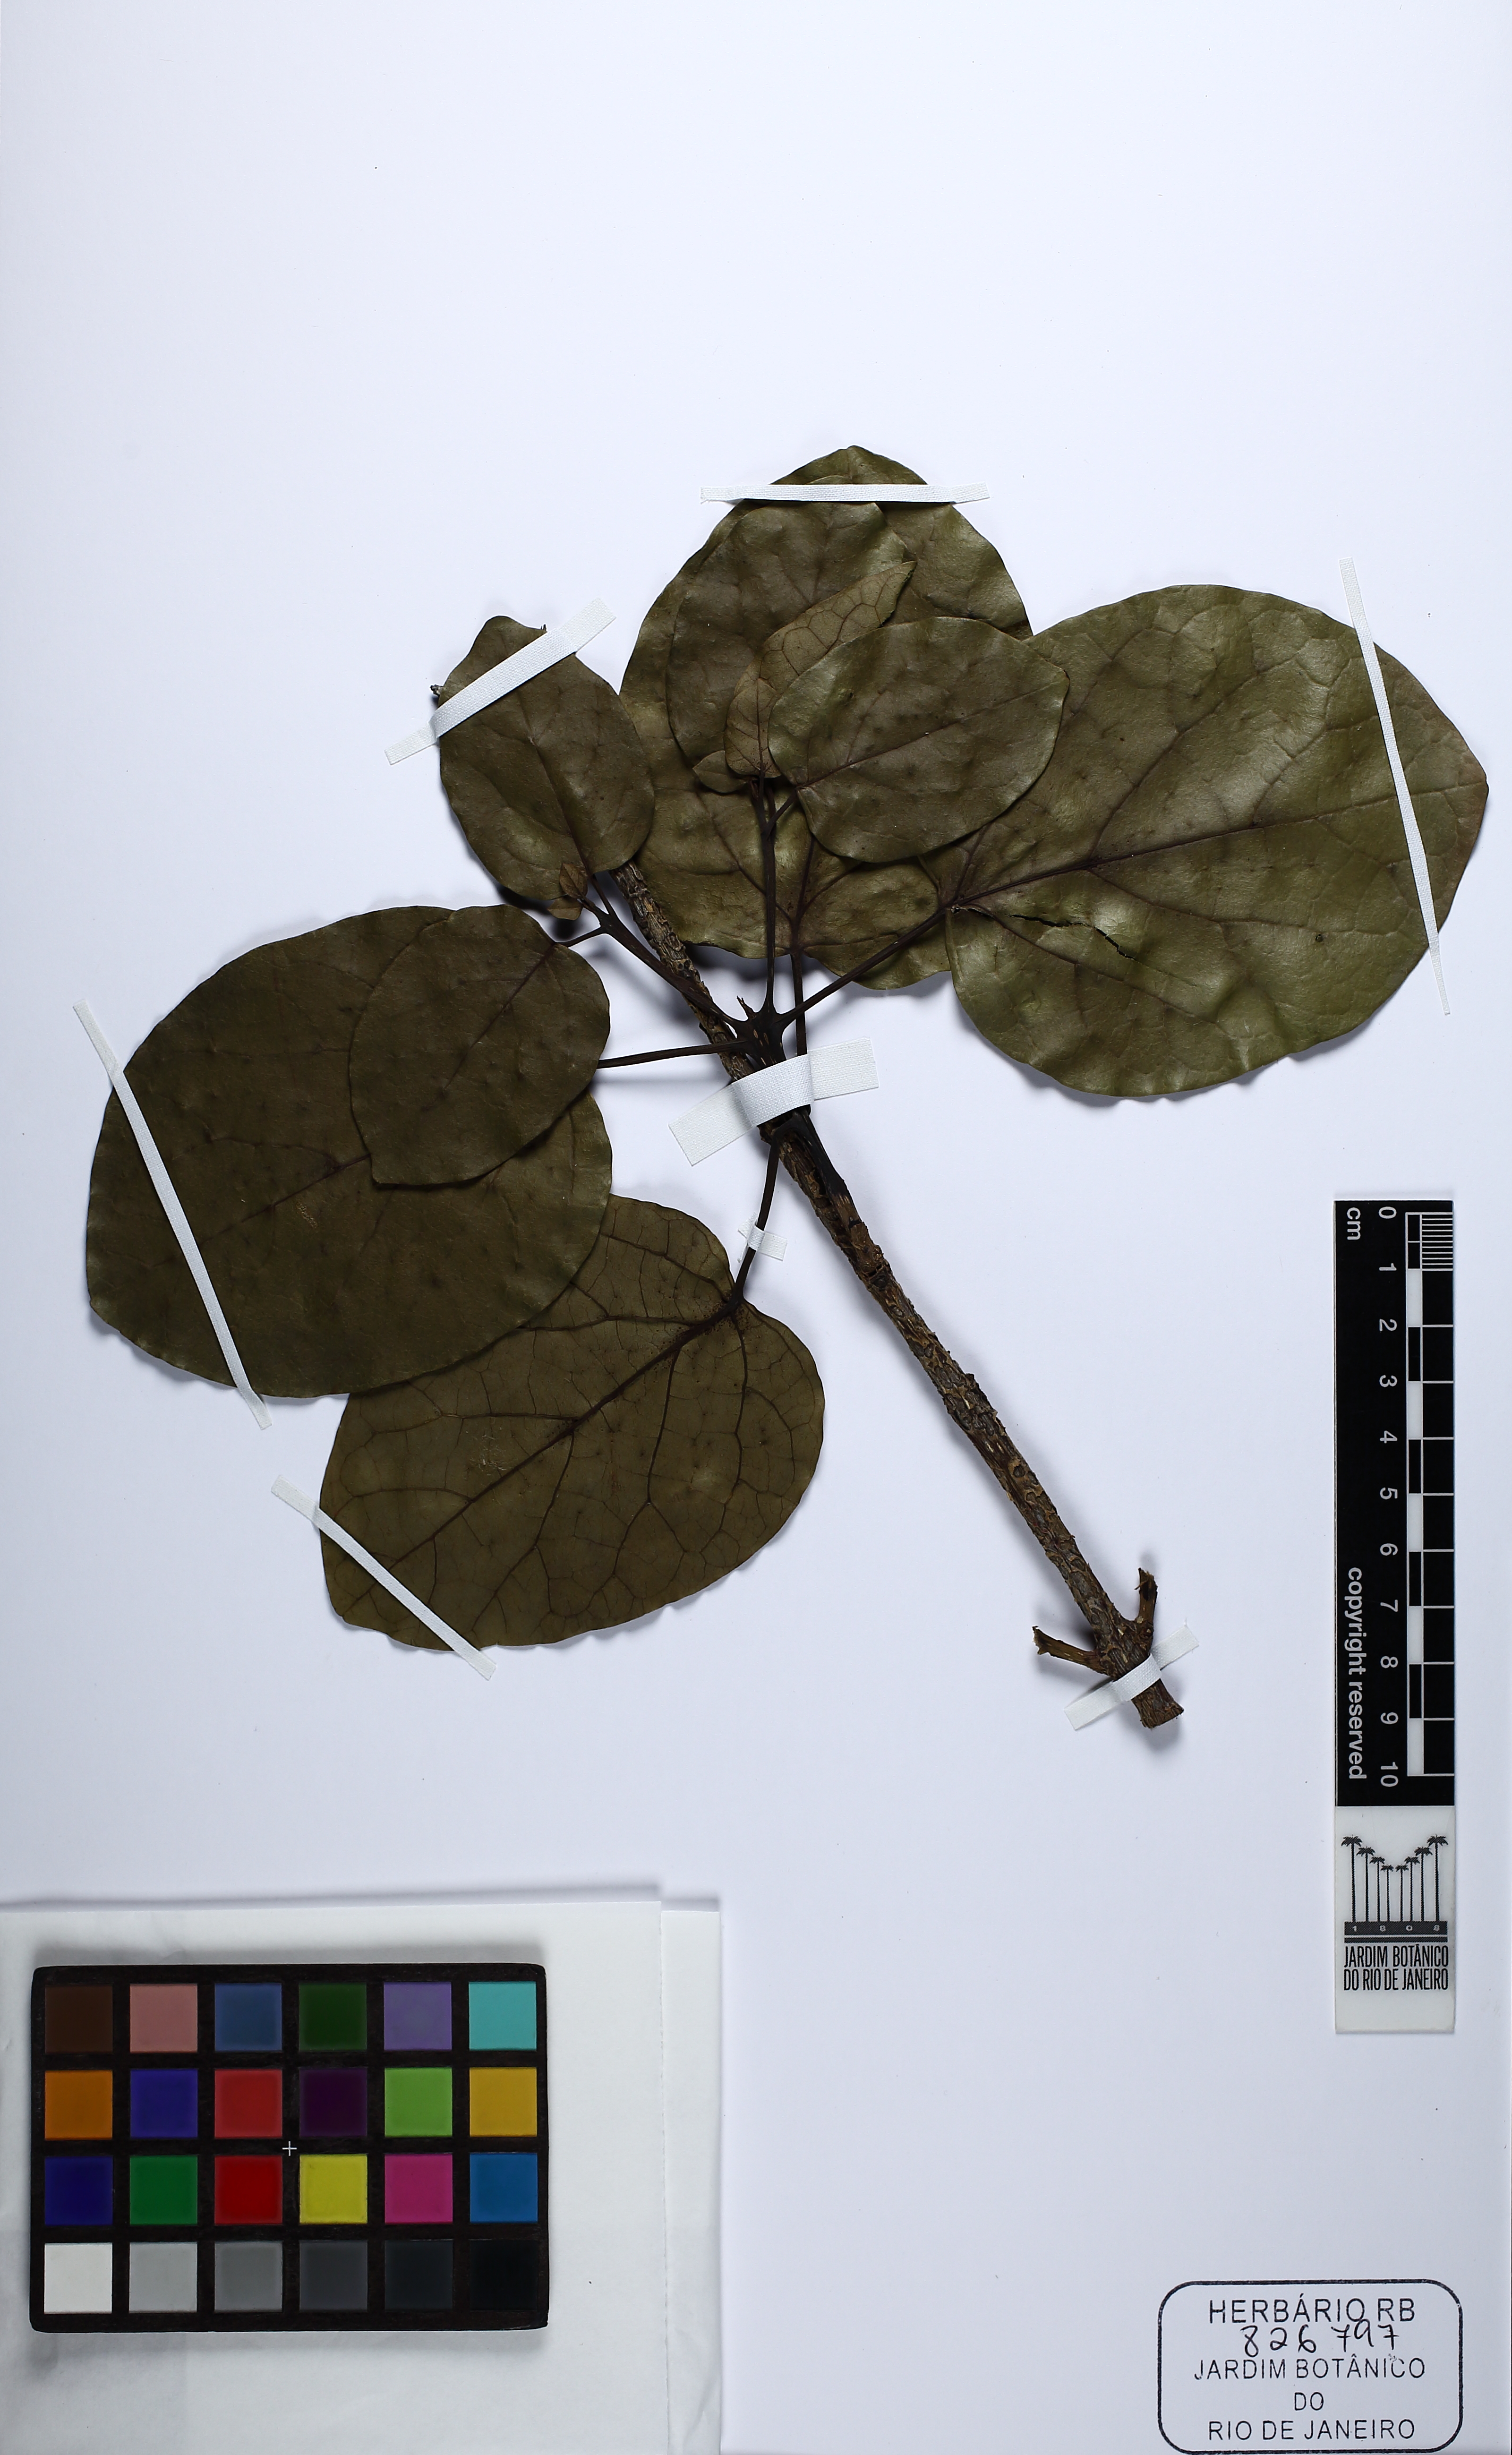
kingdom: Plantae
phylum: Tracheophyta
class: Magnoliopsida
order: Lamiales
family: Bignoniaceae
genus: Tabebuia
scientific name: Tabebuia reticulata
